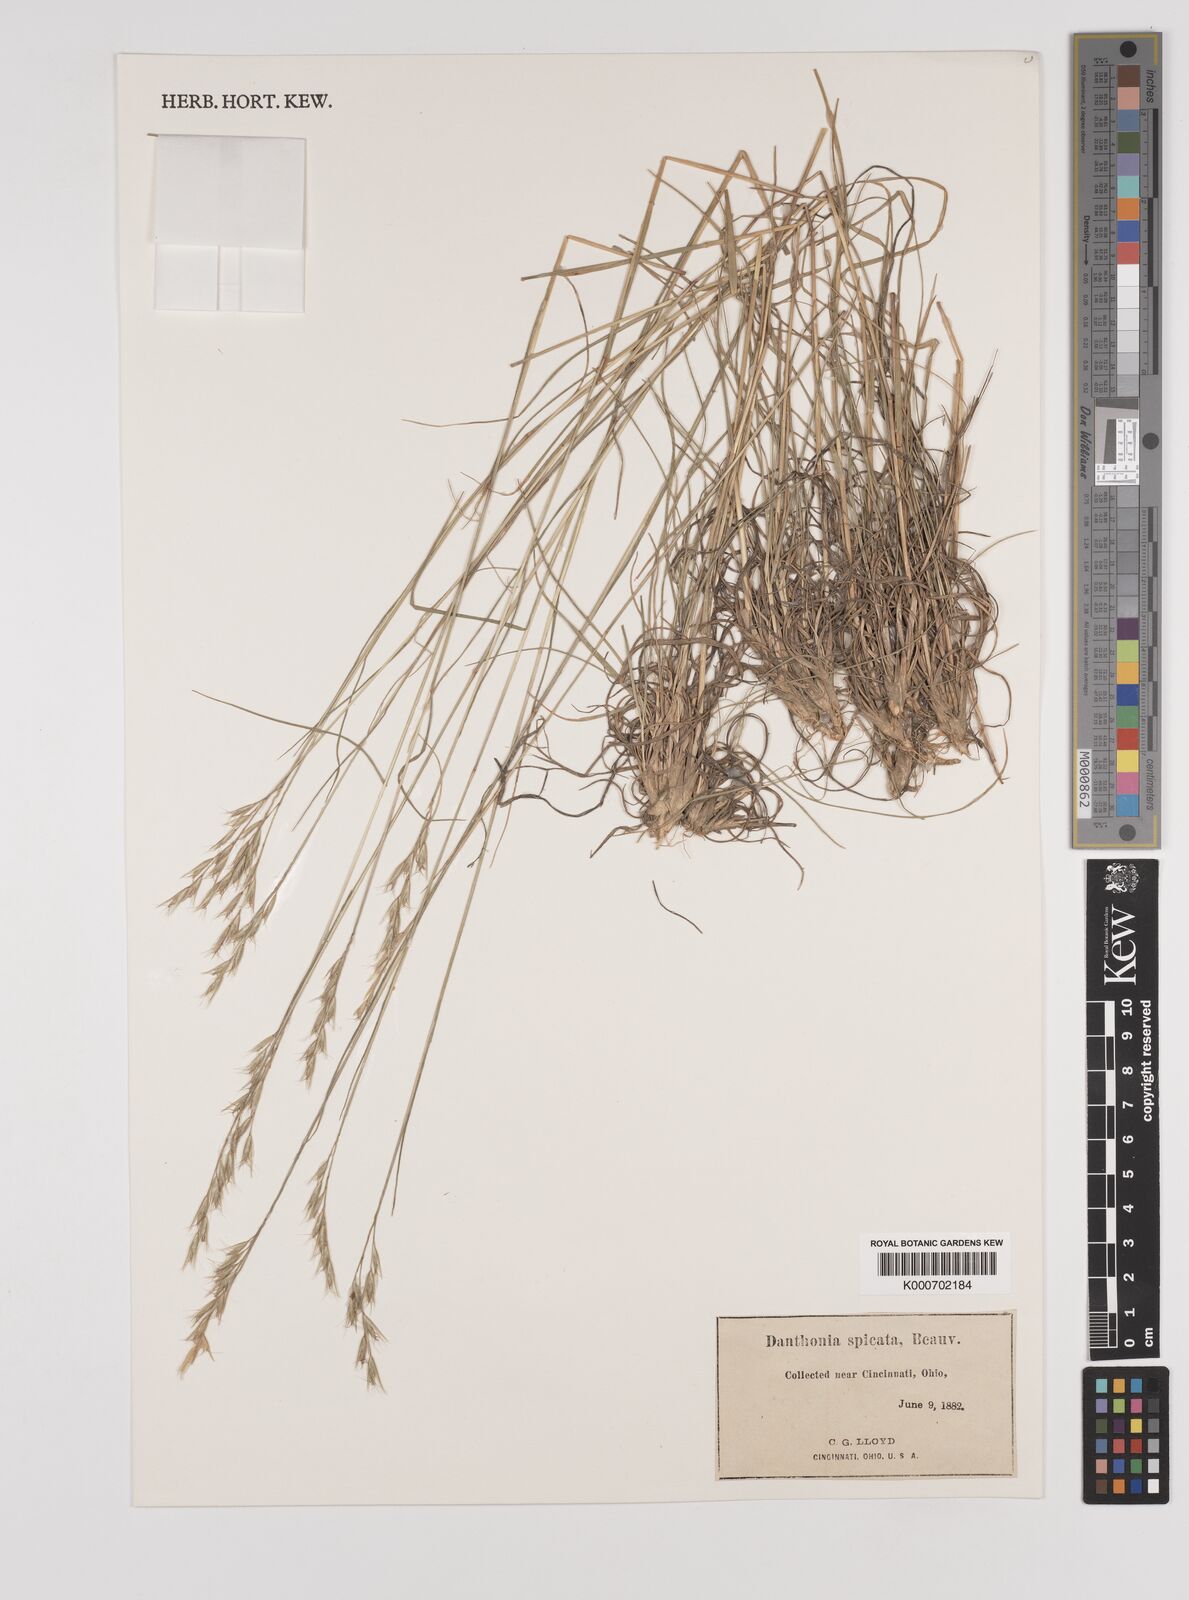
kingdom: Plantae
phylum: Tracheophyta
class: Liliopsida
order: Poales
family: Poaceae
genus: Danthonia
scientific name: Danthonia spicata
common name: Common wild oatgrass
